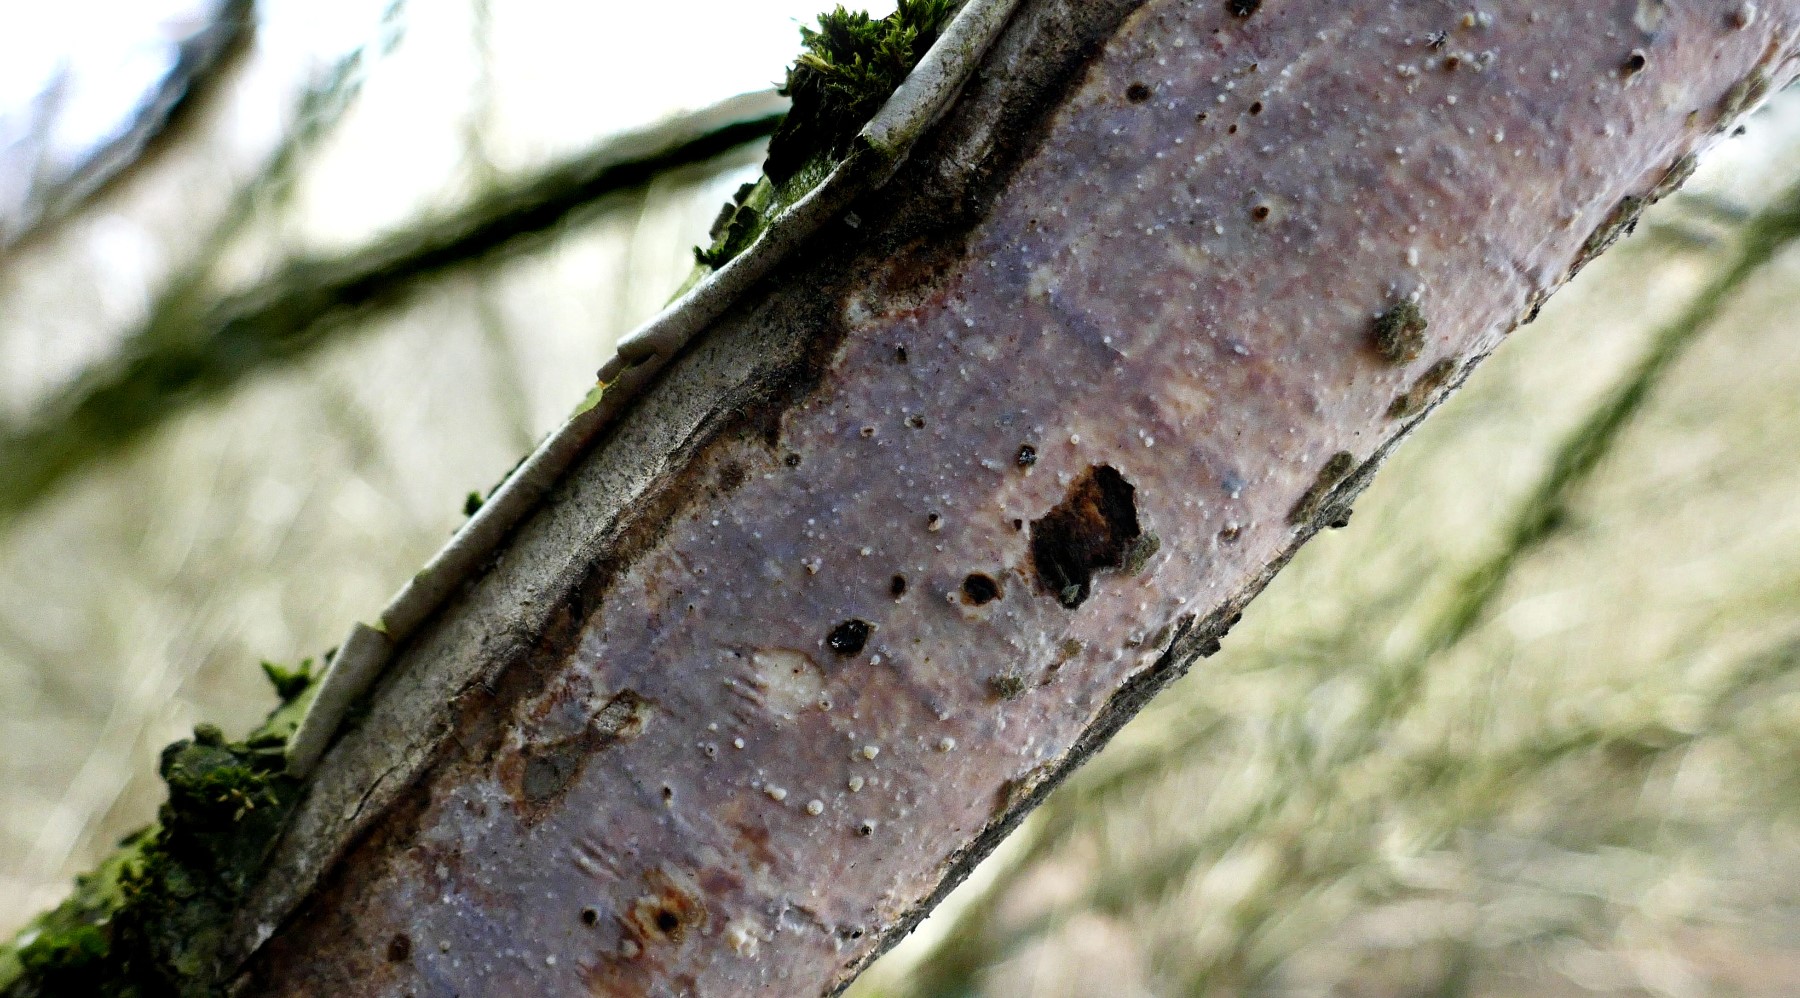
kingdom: Fungi
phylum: Basidiomycota
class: Agaricomycetes
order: Corticiales
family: Vuilleminiaceae
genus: Vuilleminia
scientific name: Vuilleminia coryli
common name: hassel-barksprænger
